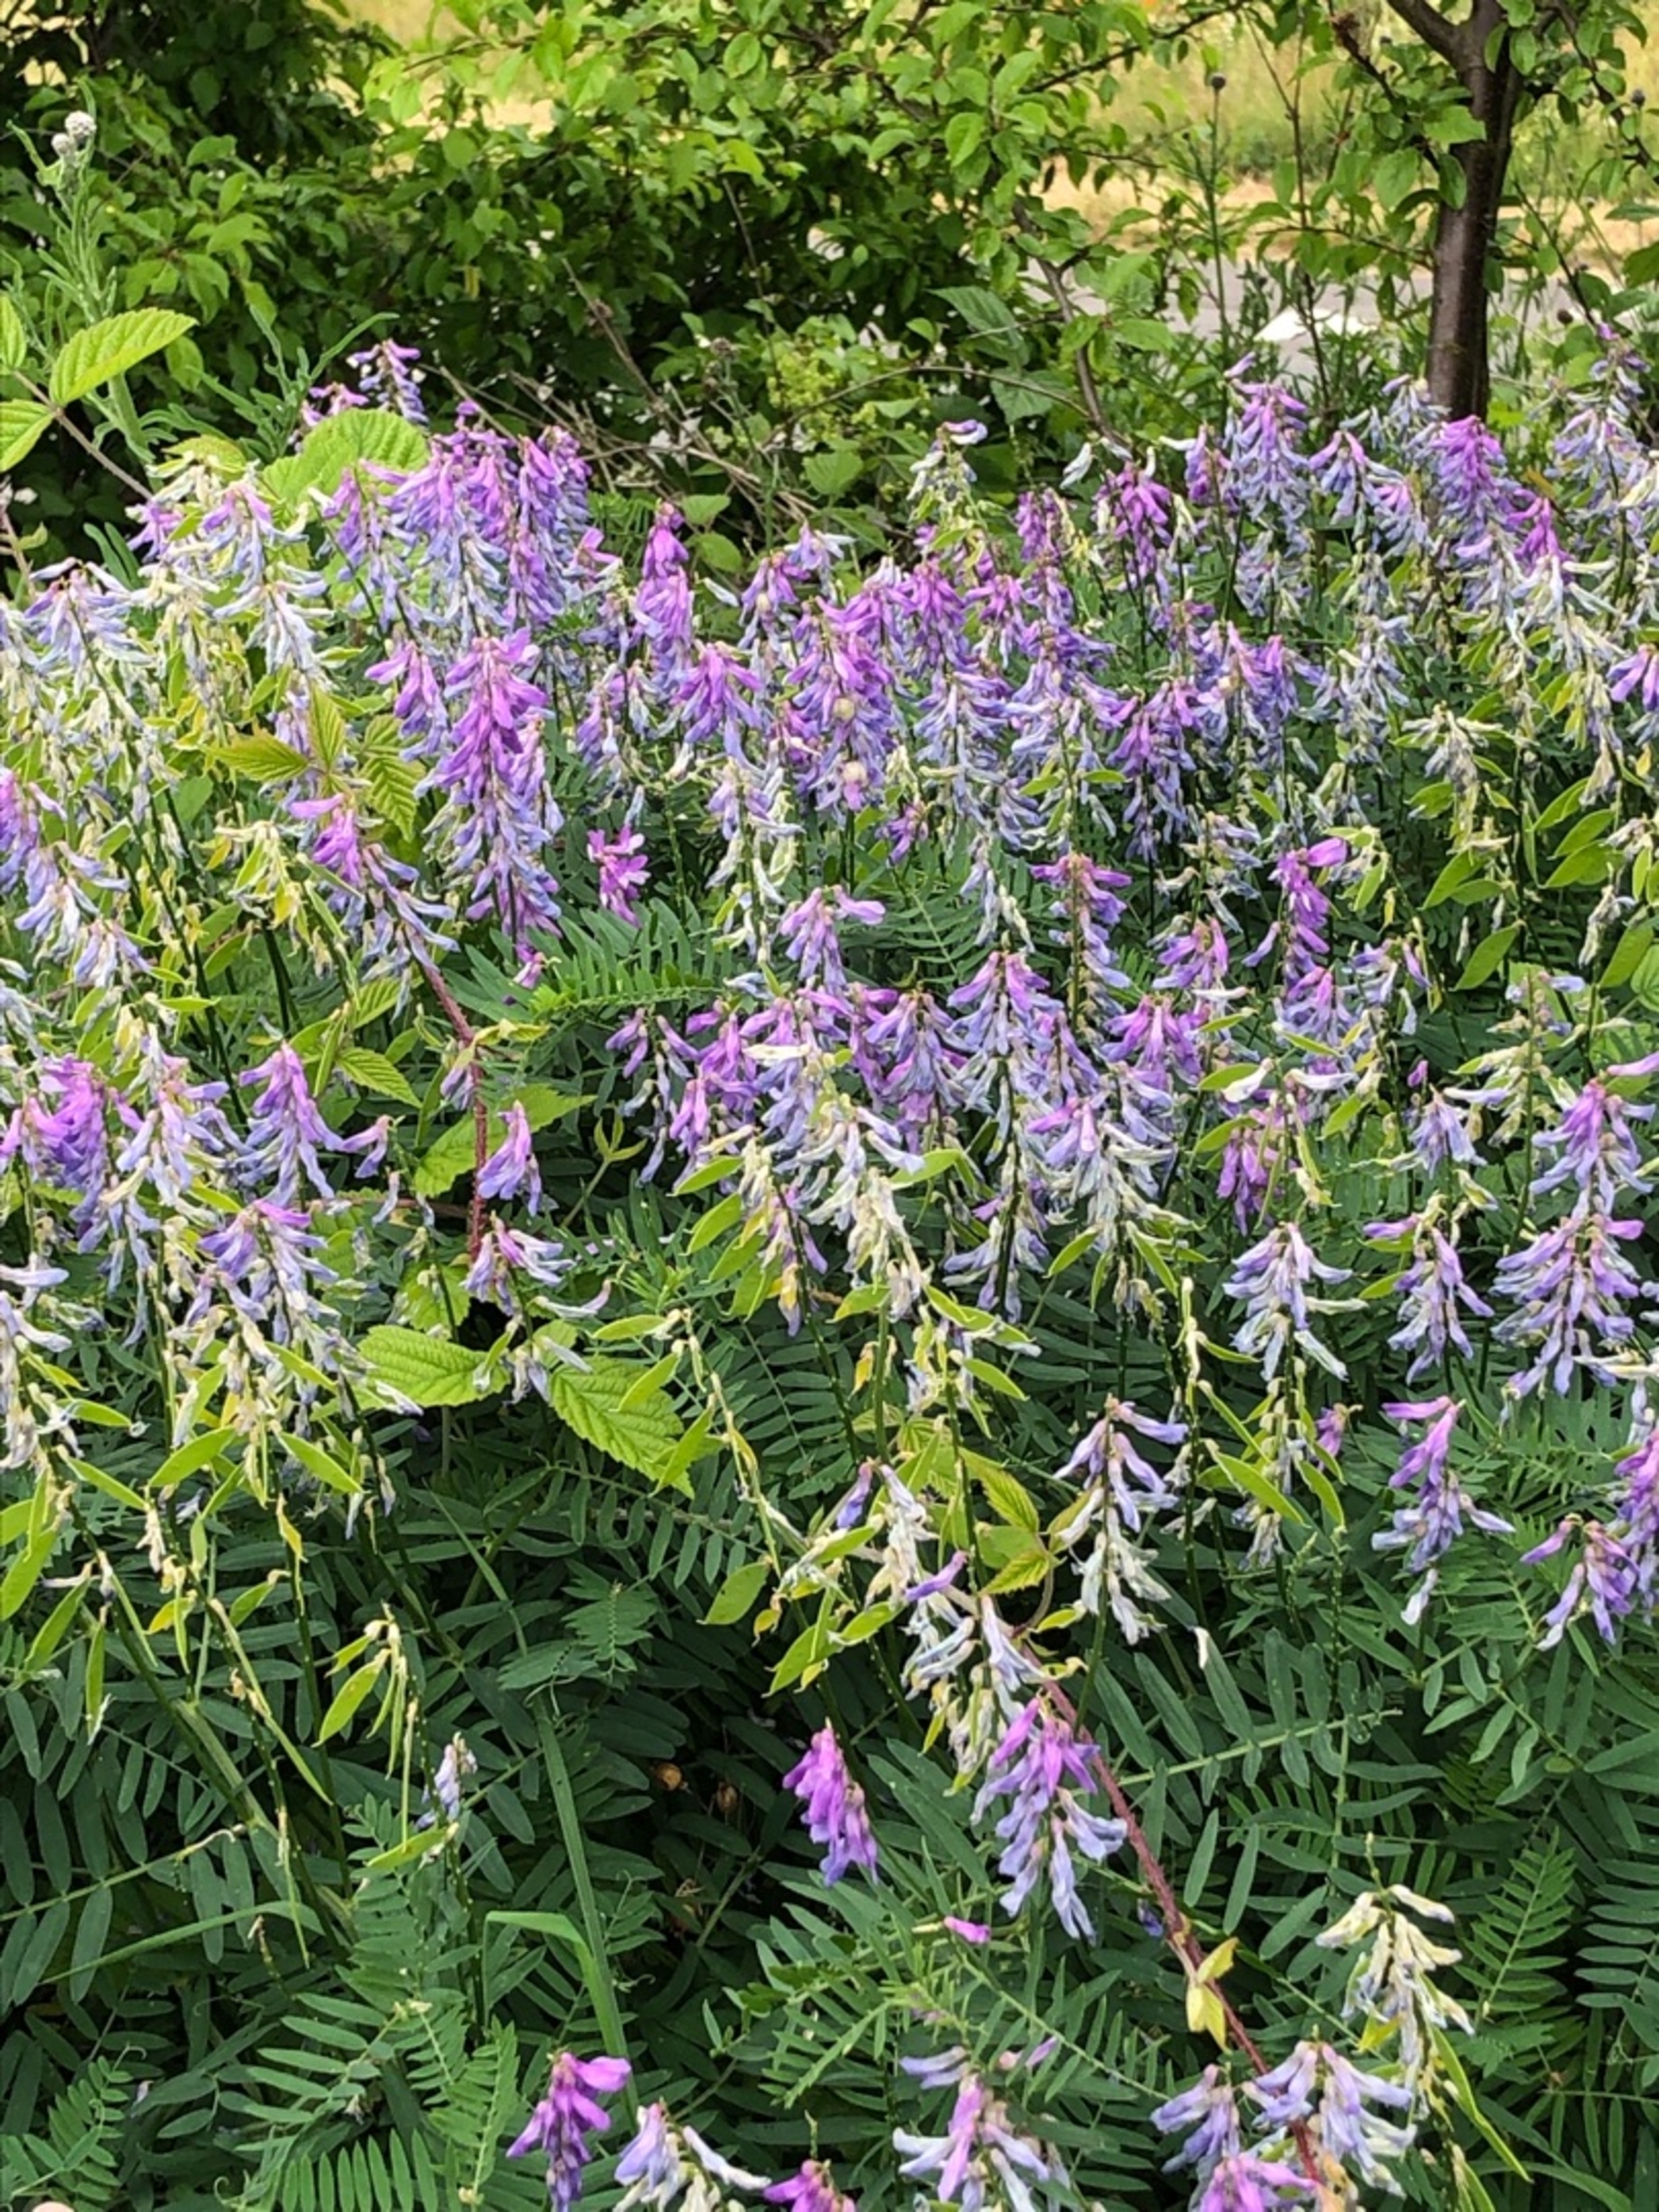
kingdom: Plantae
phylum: Tracheophyta
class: Magnoliopsida
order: Fabales
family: Fabaceae
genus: Vicia
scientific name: Vicia tenuifolia
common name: Langklaset vikke
